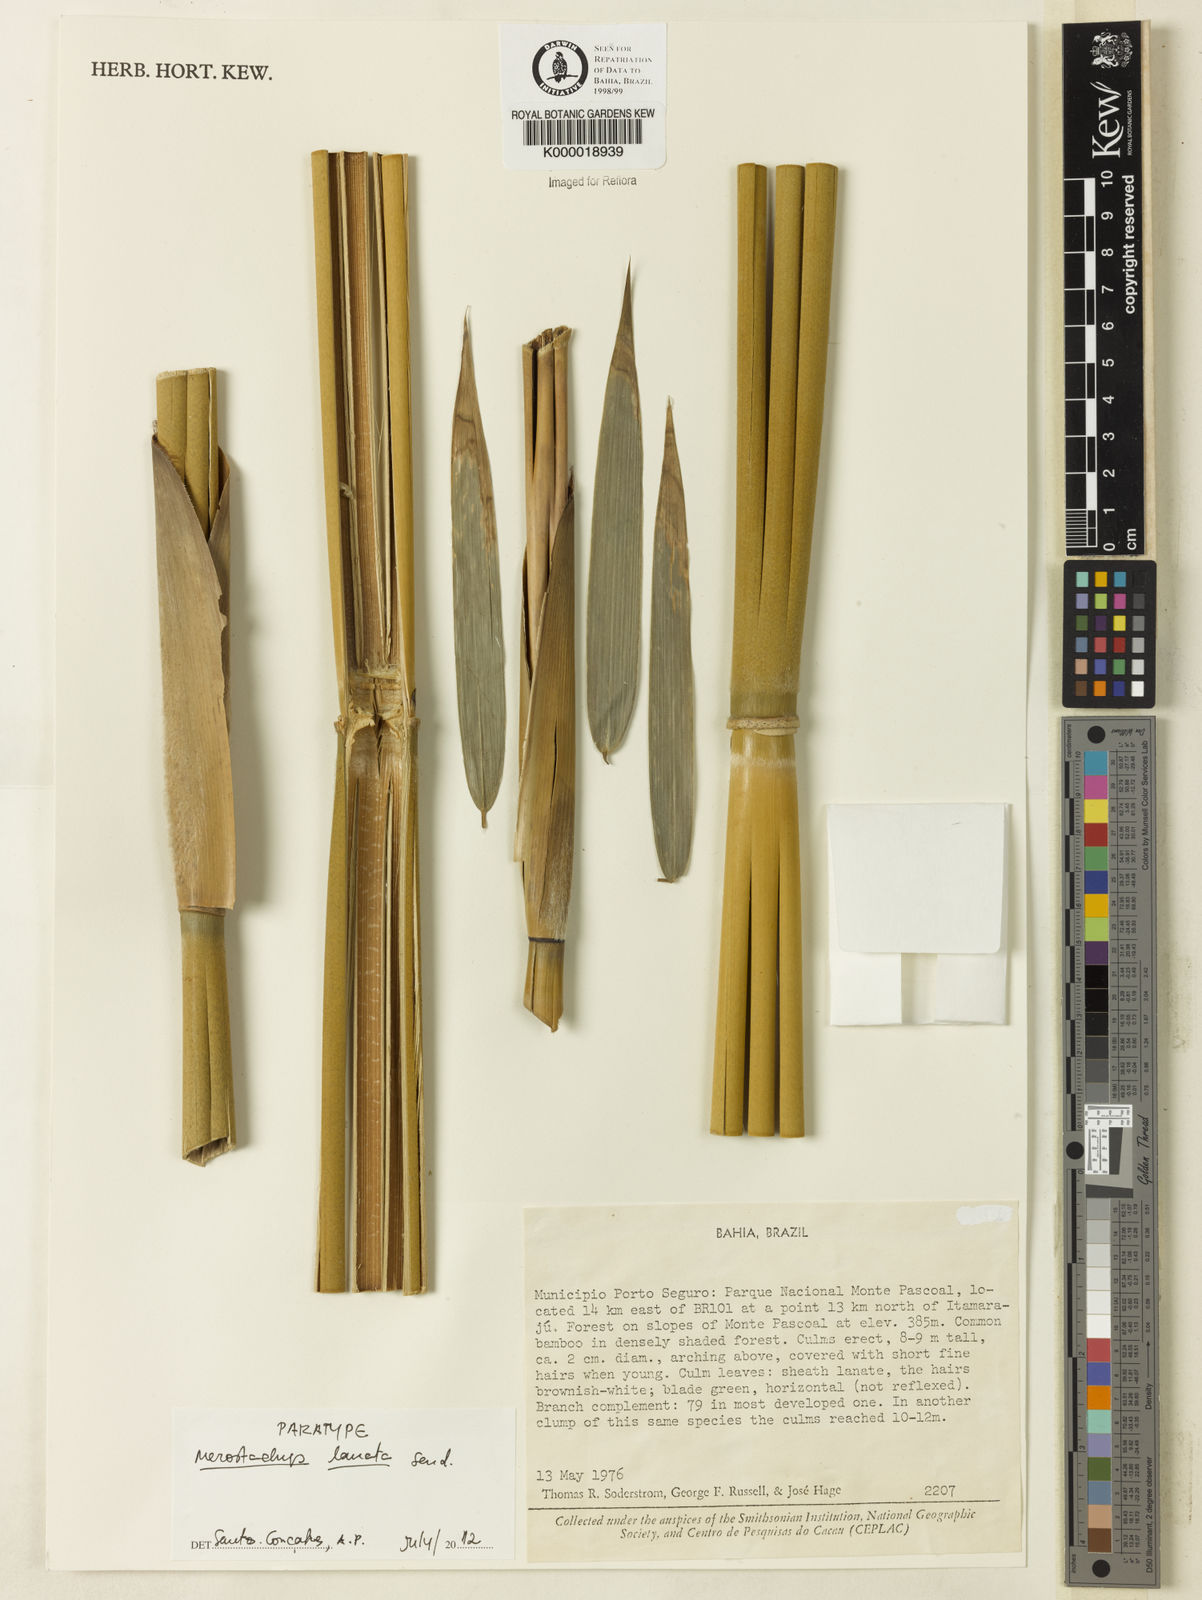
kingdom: Plantae
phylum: Tracheophyta
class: Liliopsida
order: Poales
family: Poaceae
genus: Merostachys
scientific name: Merostachys lanata
